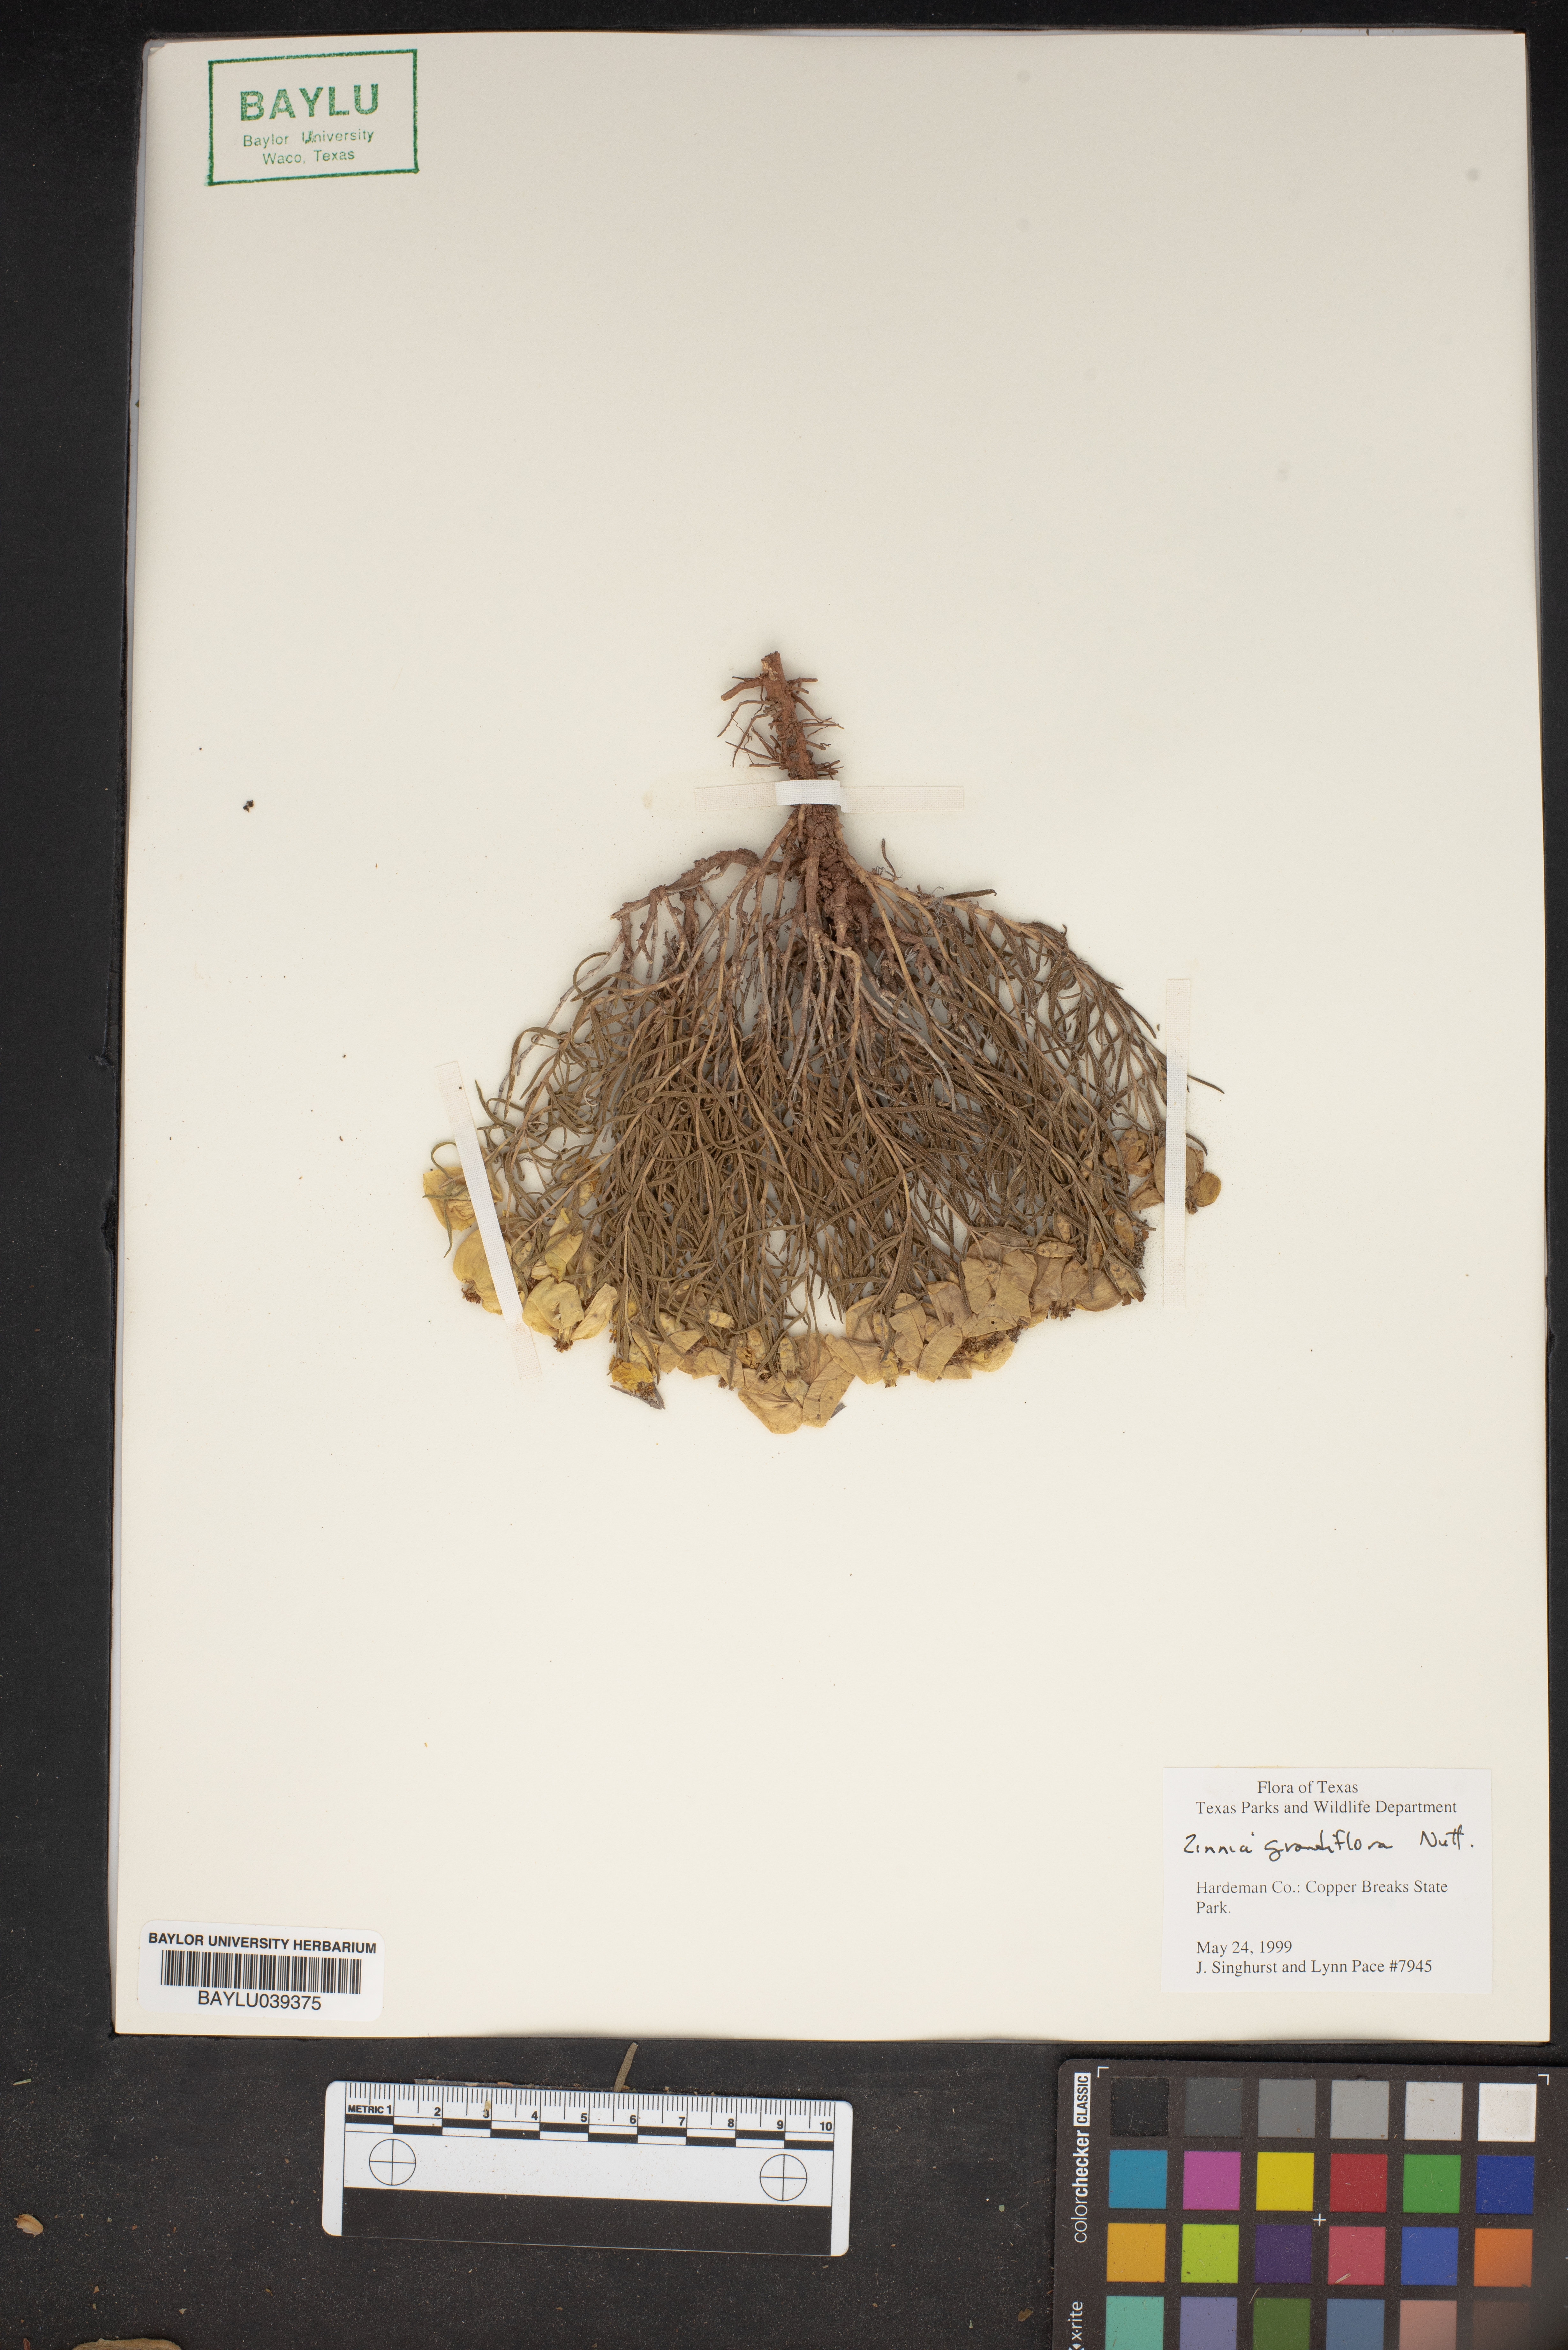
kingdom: Plantae
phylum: Tracheophyta
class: Magnoliopsida
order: Asterales
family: Asteraceae
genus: Zinnia
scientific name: Zinnia grandiflora
